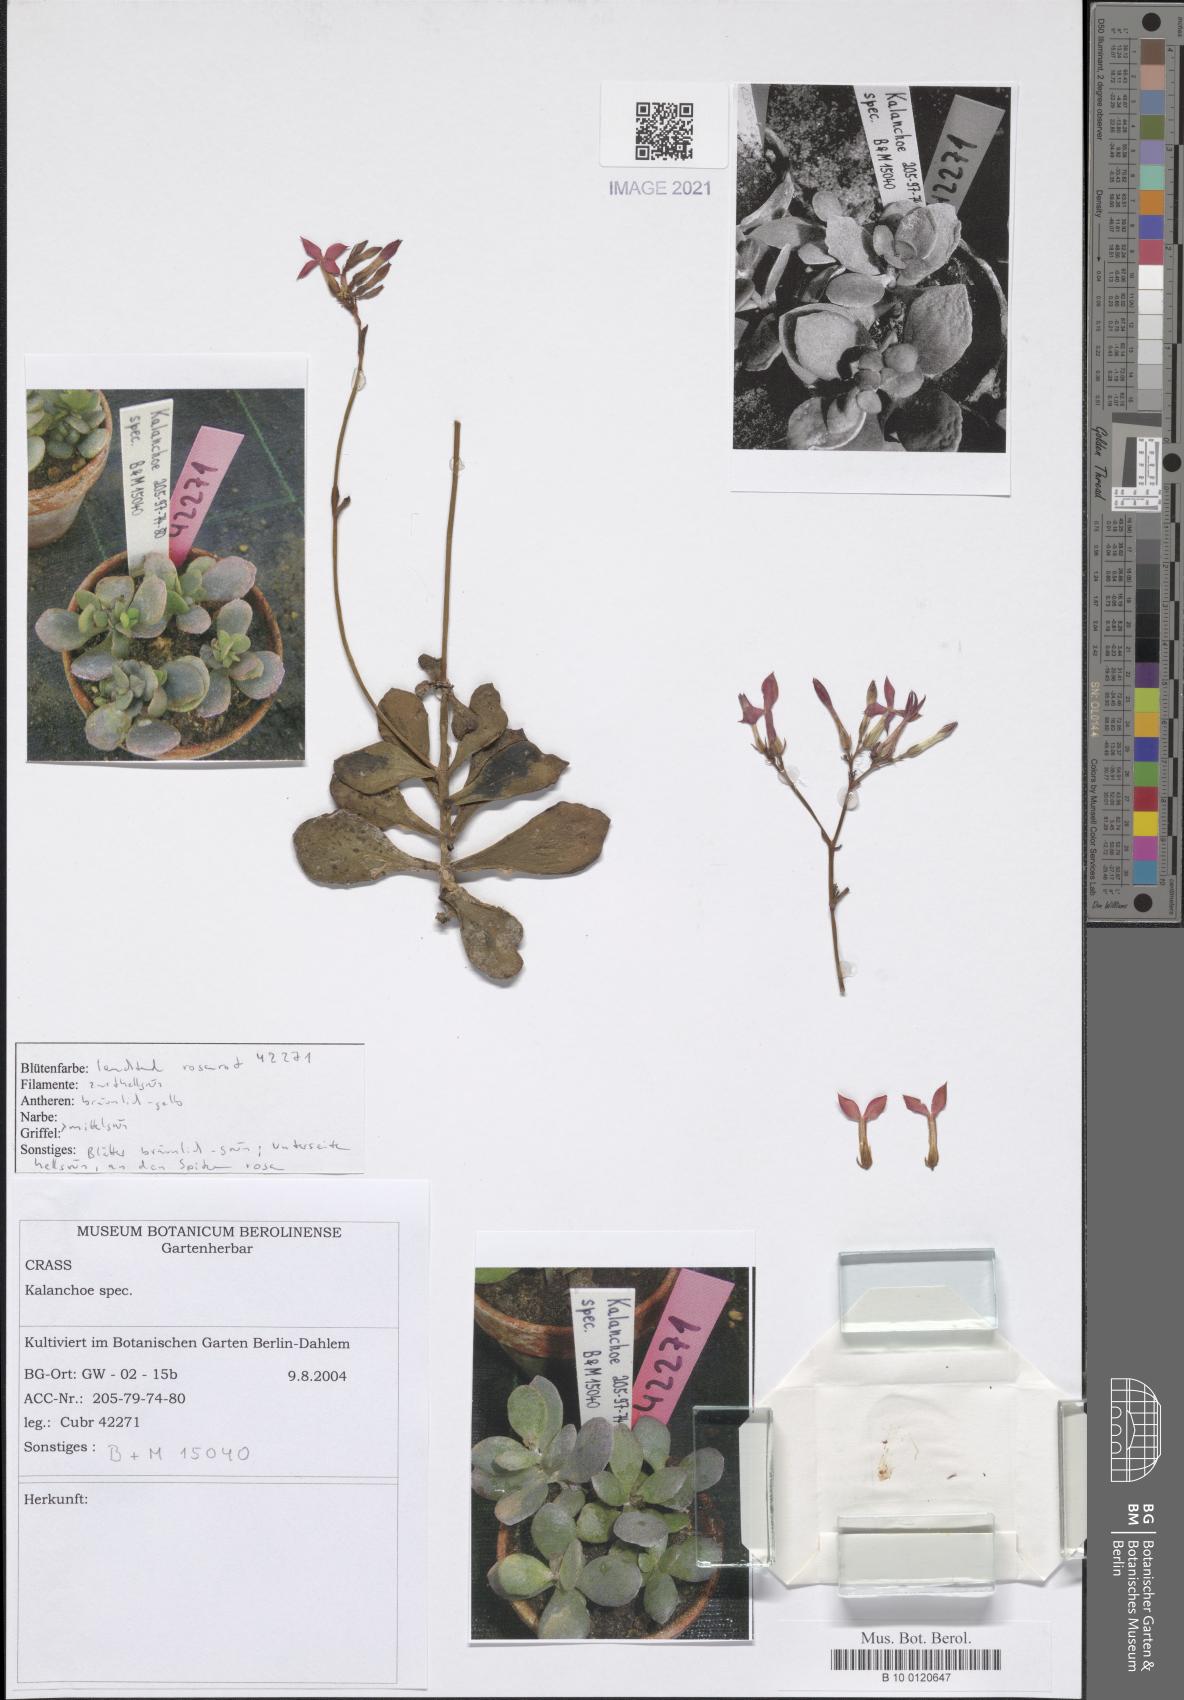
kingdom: Plantae
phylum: Tracheophyta
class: Magnoliopsida
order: Saxifragales
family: Crassulaceae
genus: Kalanchoe
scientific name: Kalanchoe
